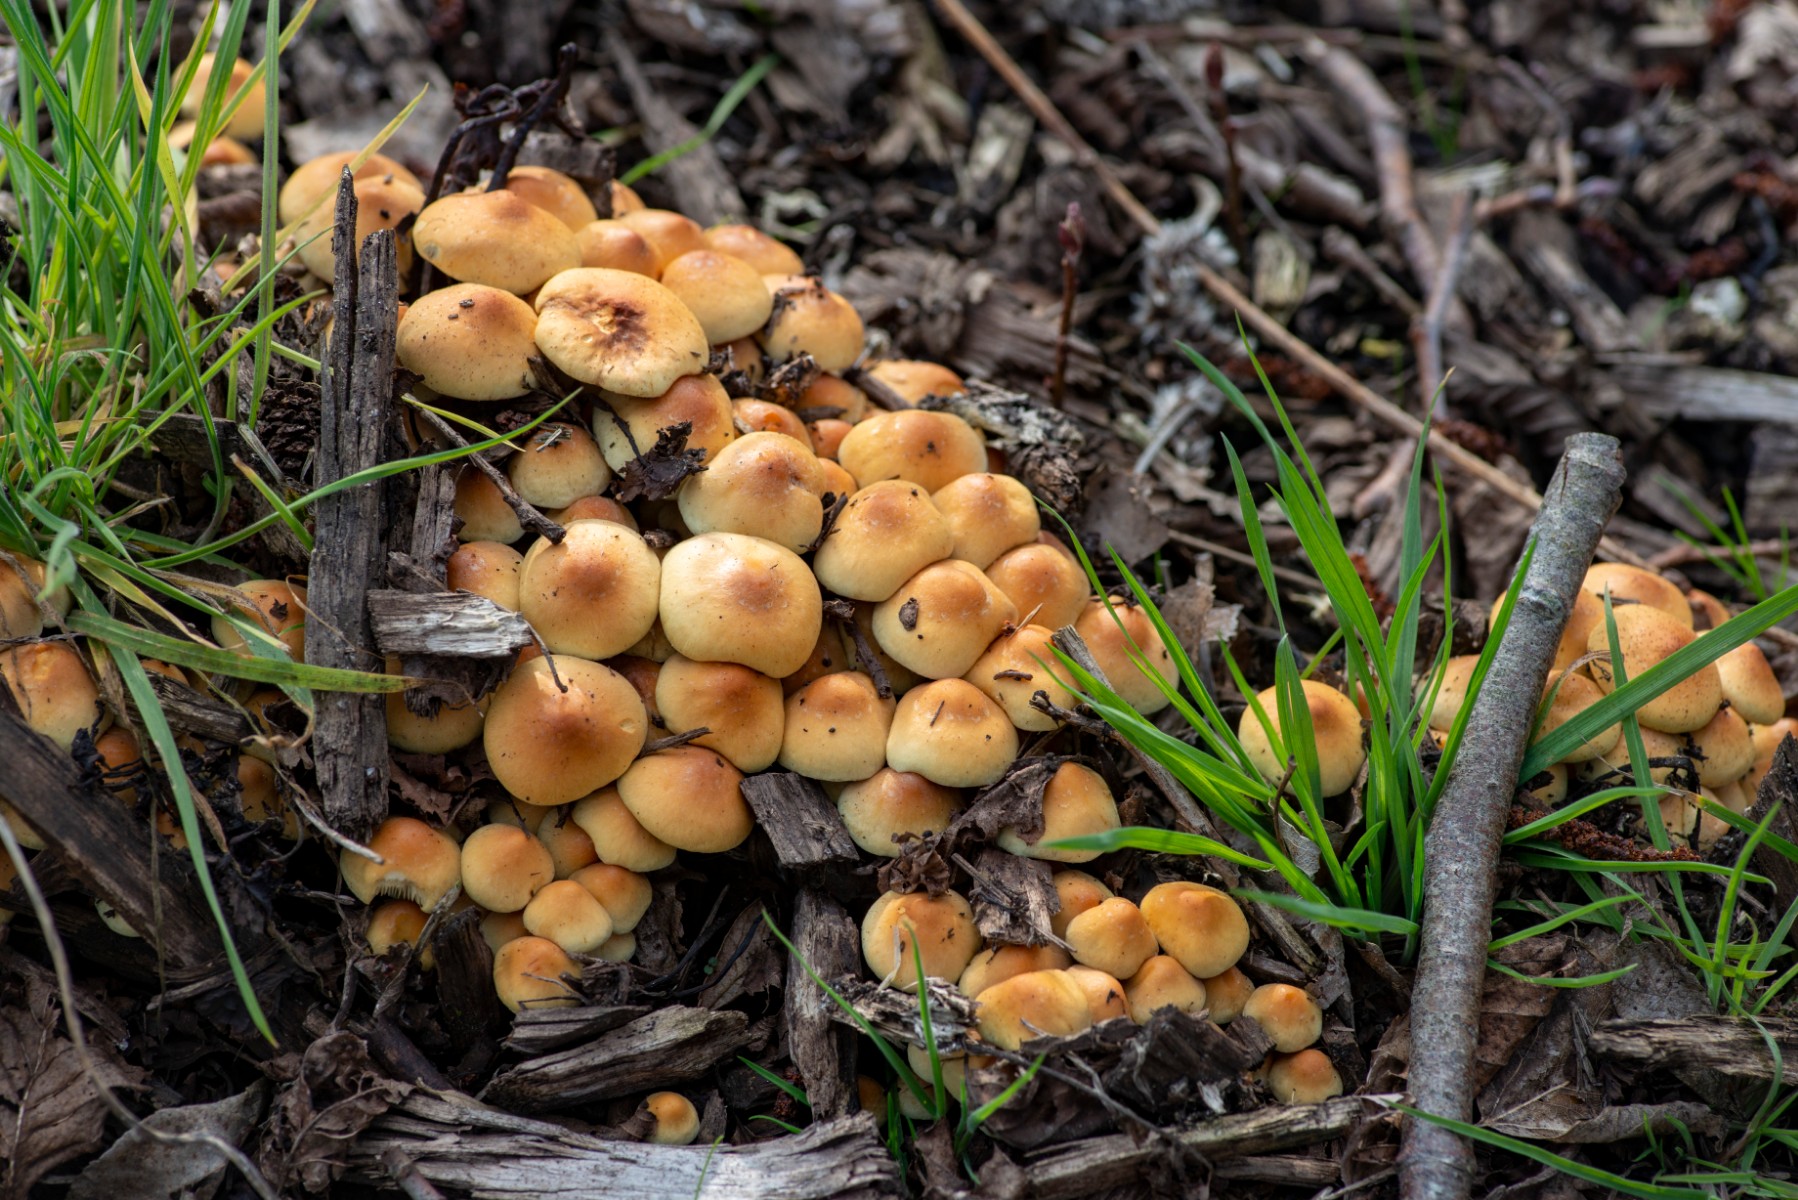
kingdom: Fungi
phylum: Basidiomycota
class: Agaricomycetes
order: Agaricales
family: Strophariaceae
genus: Hypholoma
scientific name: Hypholoma fasciculare
